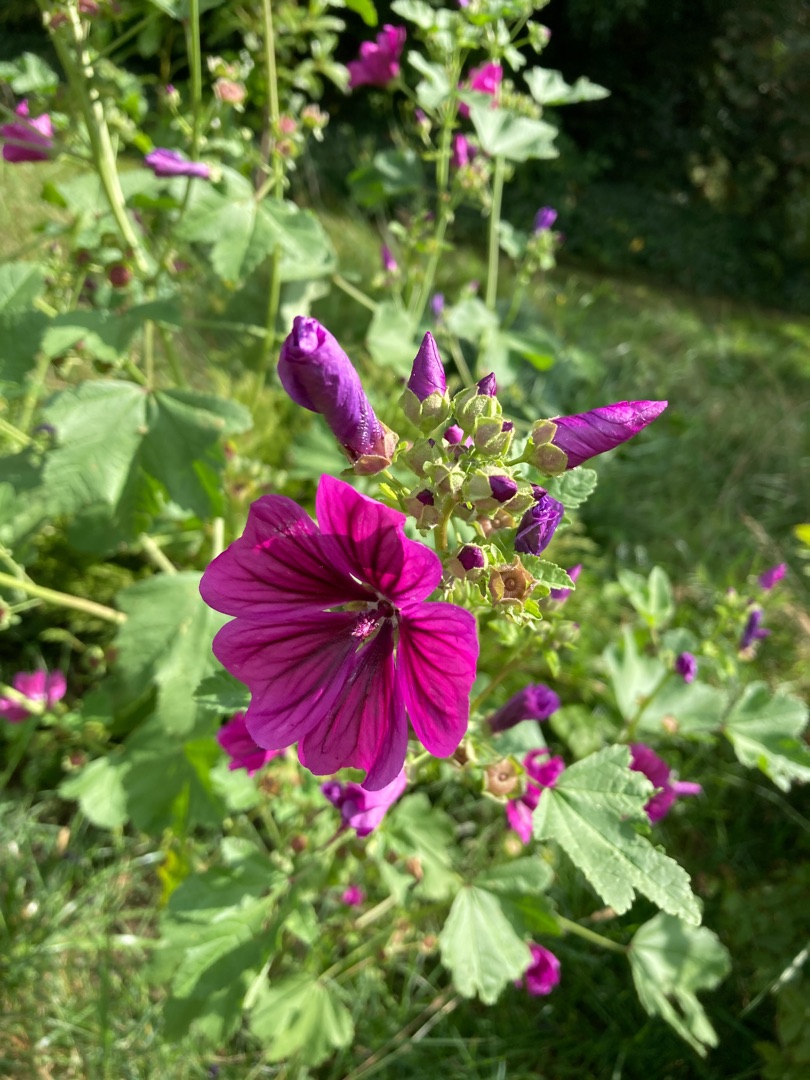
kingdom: Plantae
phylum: Tracheophyta
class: Magnoliopsida
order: Malvales
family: Malvaceae
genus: Malva
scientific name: Malva sylvestris
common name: Stor katost
